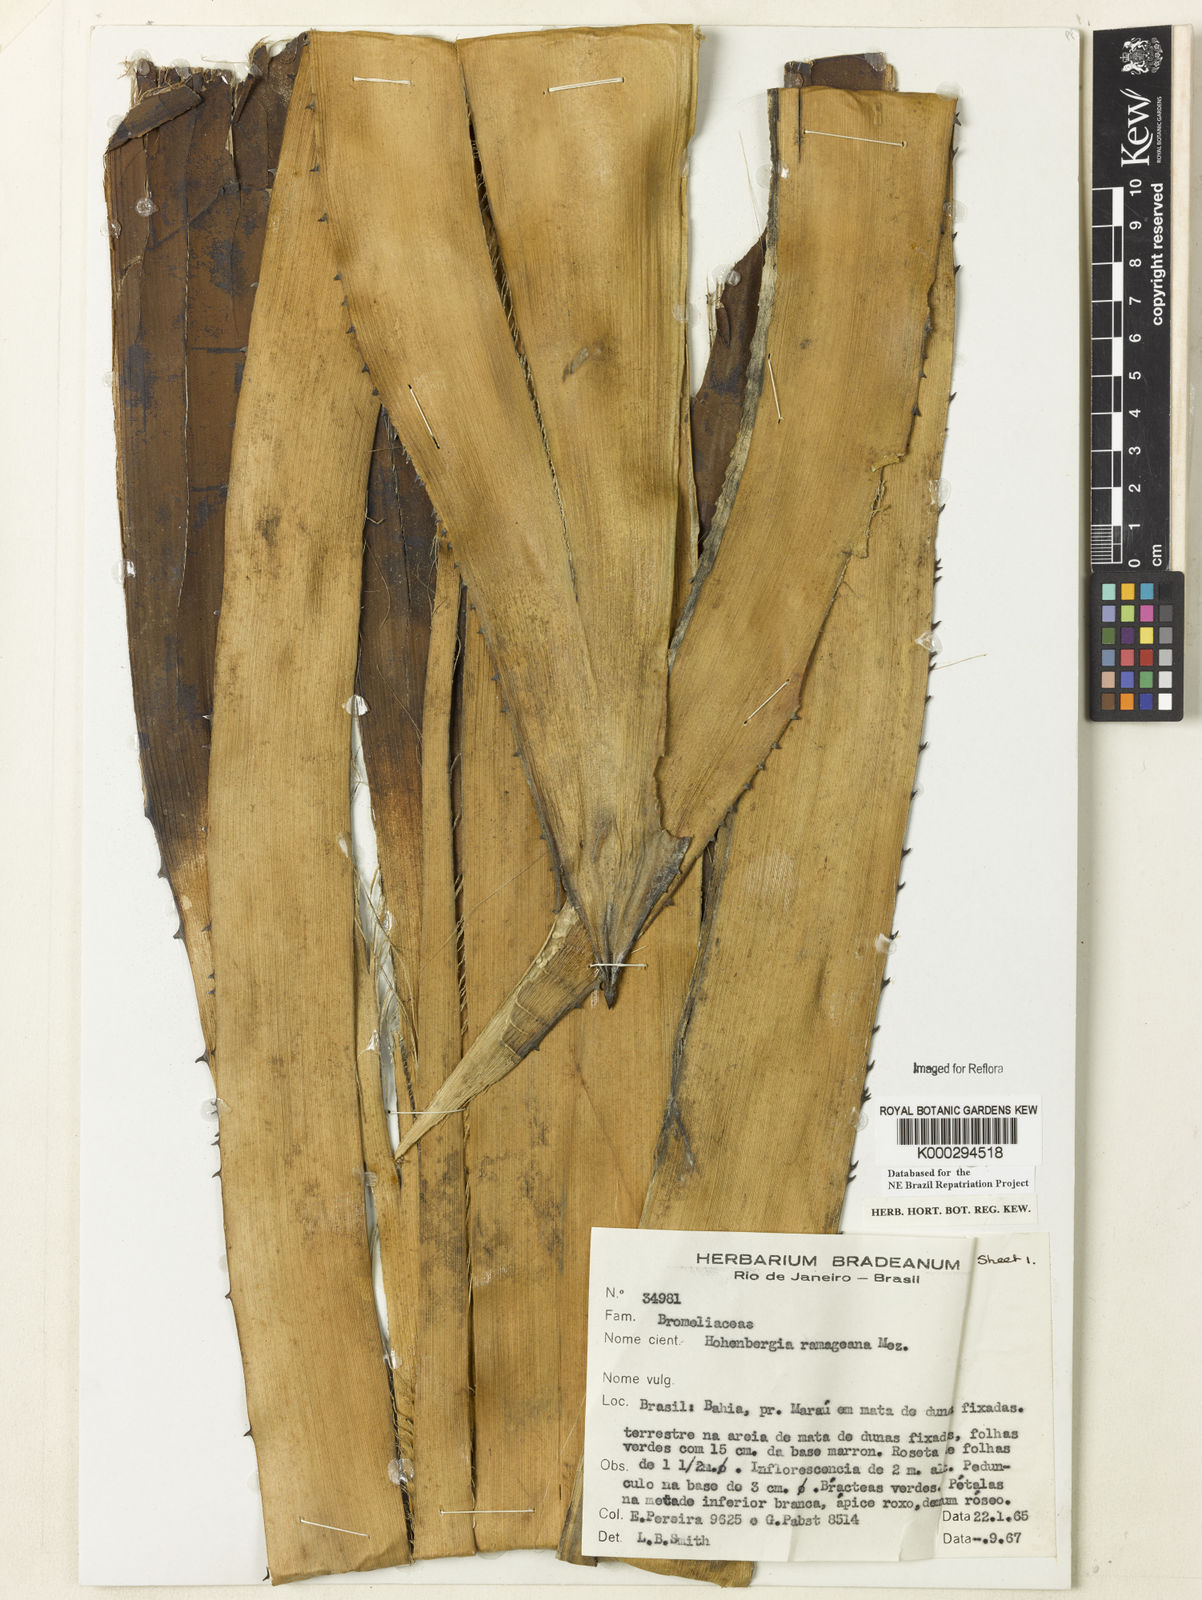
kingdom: Plantae
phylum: Tracheophyta
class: Liliopsida
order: Poales
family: Bromeliaceae
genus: Hohenbergia
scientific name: Hohenbergia ridleyi
